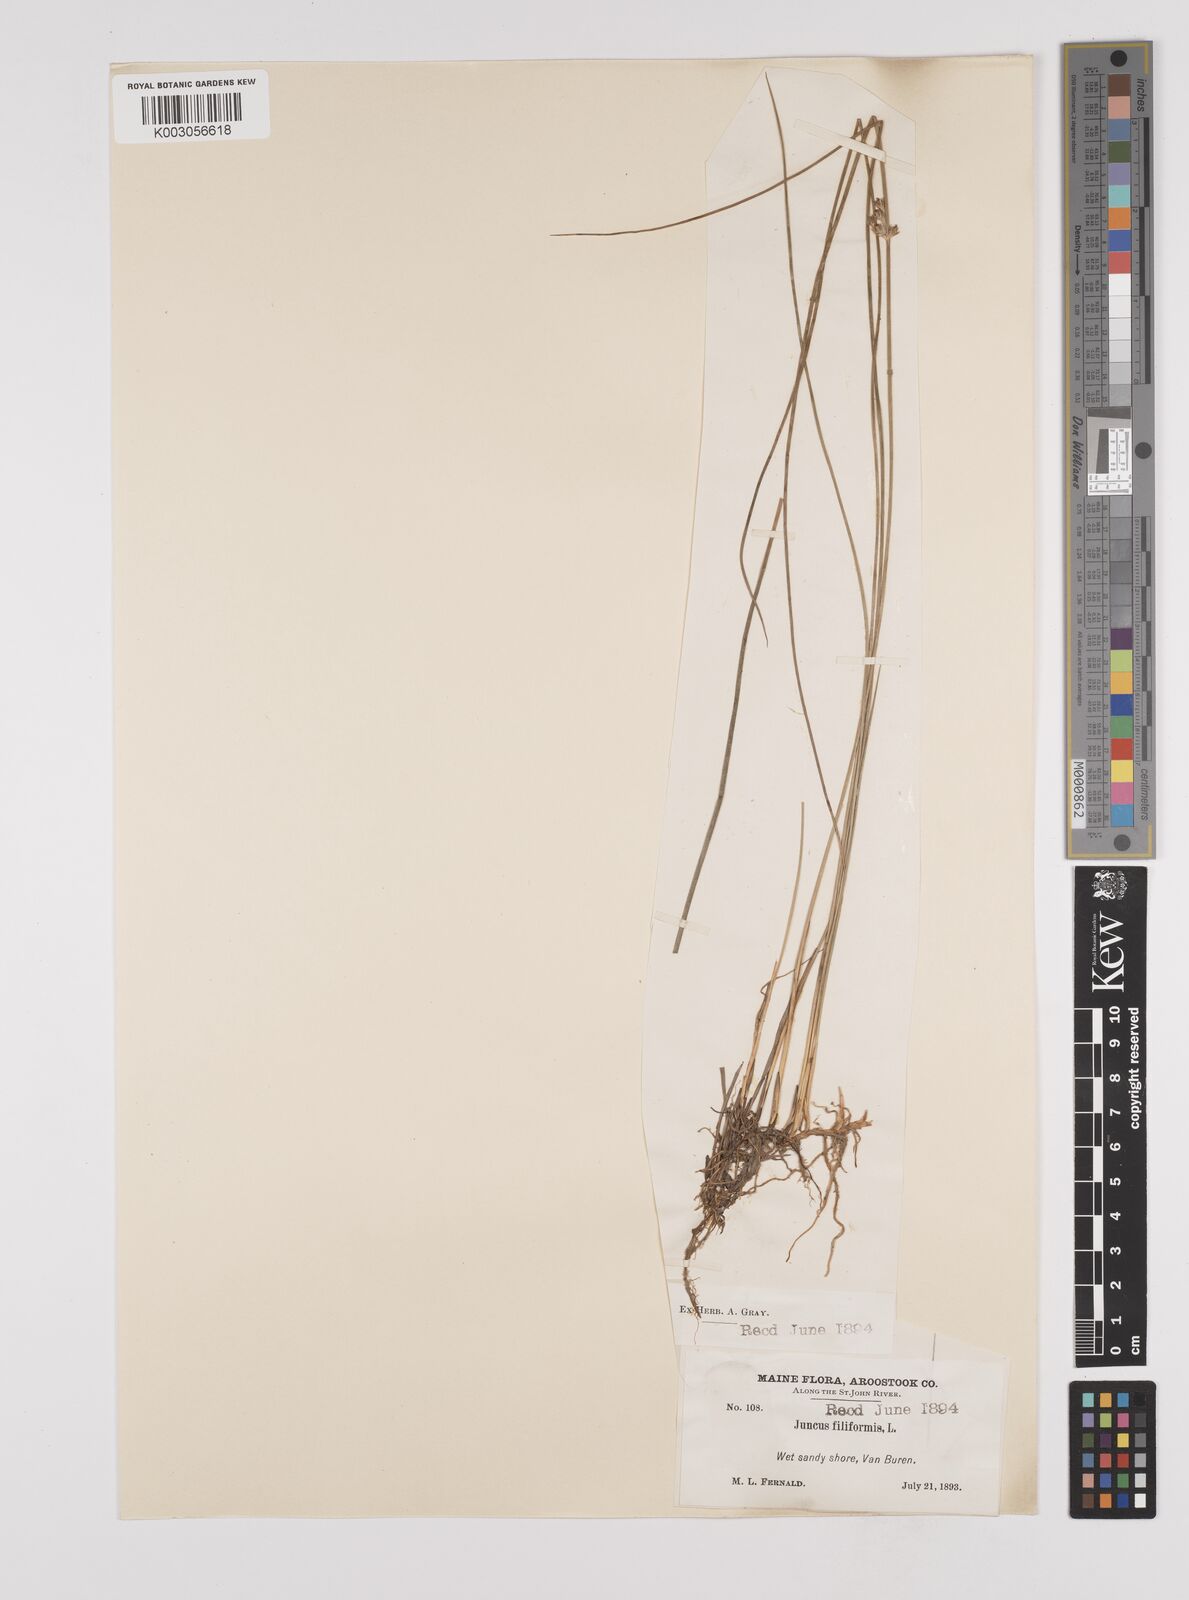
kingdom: Plantae
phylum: Tracheophyta
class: Liliopsida
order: Poales
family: Juncaceae
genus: Juncus
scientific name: Juncus filiformis
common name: Thread rush
